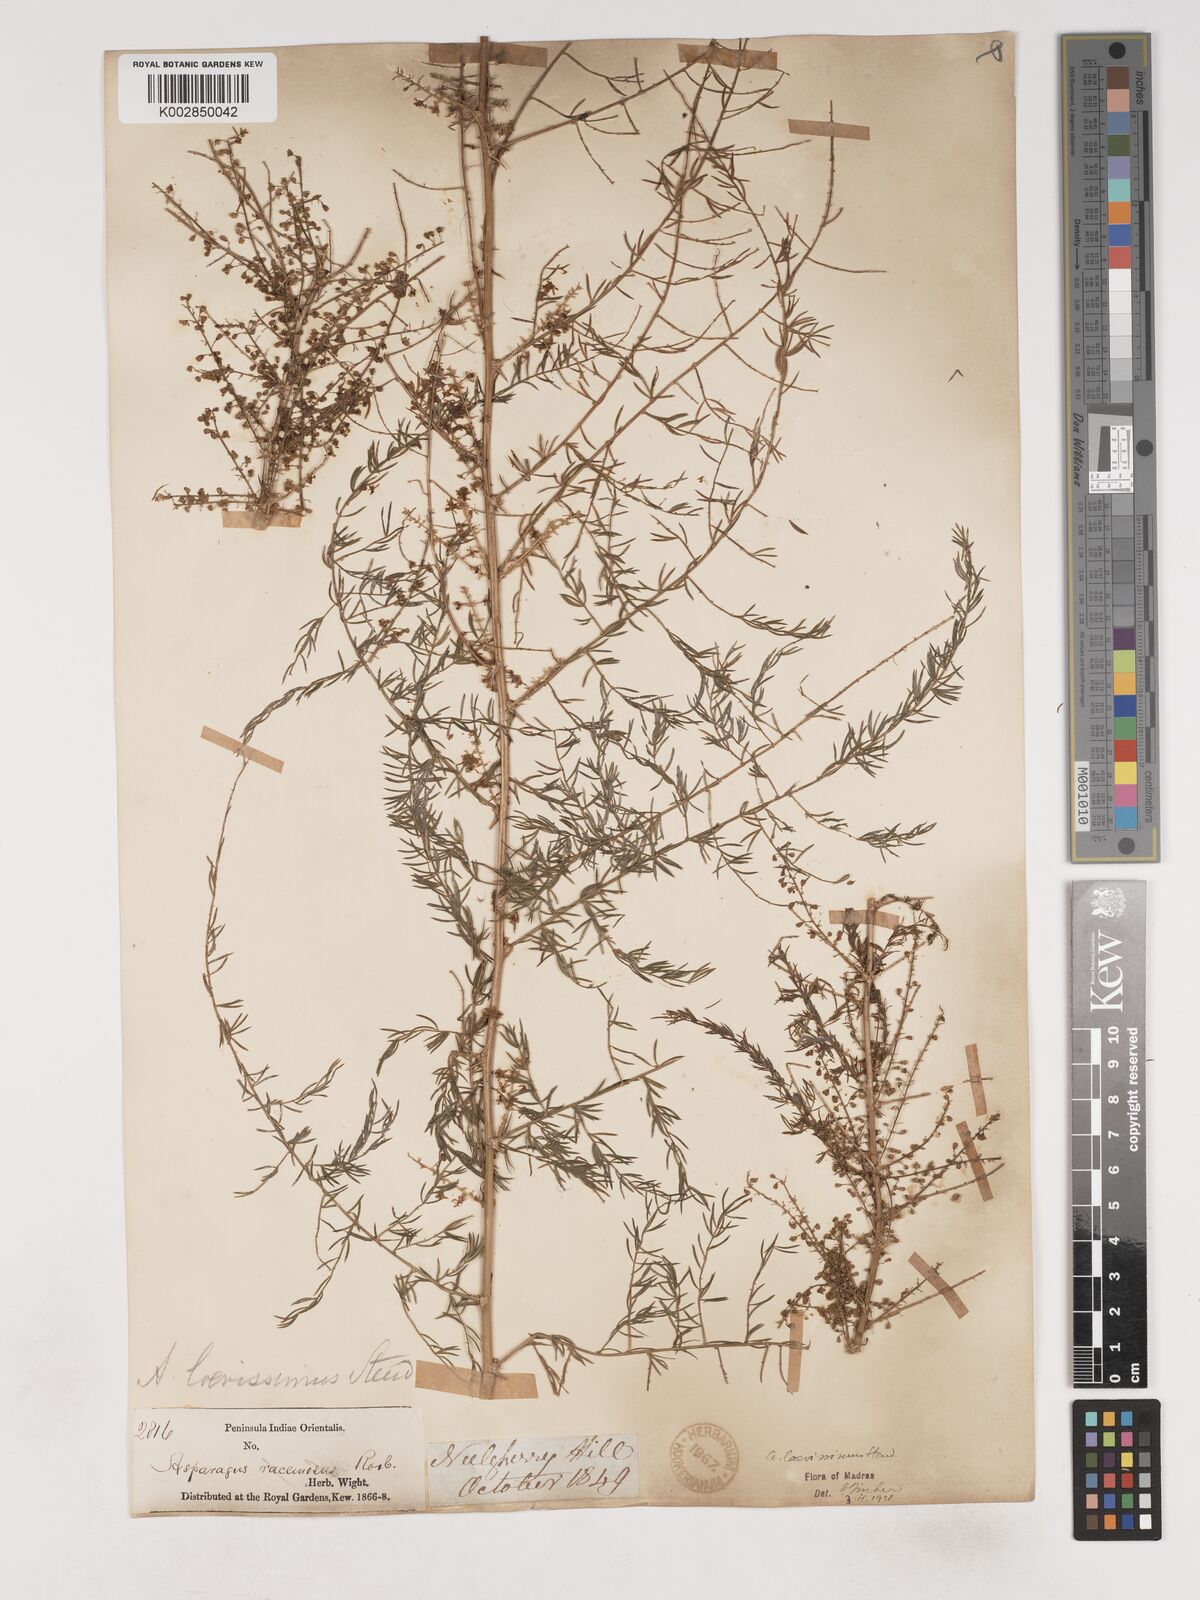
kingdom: Plantae
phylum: Tracheophyta
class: Liliopsida
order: Asparagales
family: Asparagaceae
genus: Asparagus
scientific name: Asparagus laevissimus
